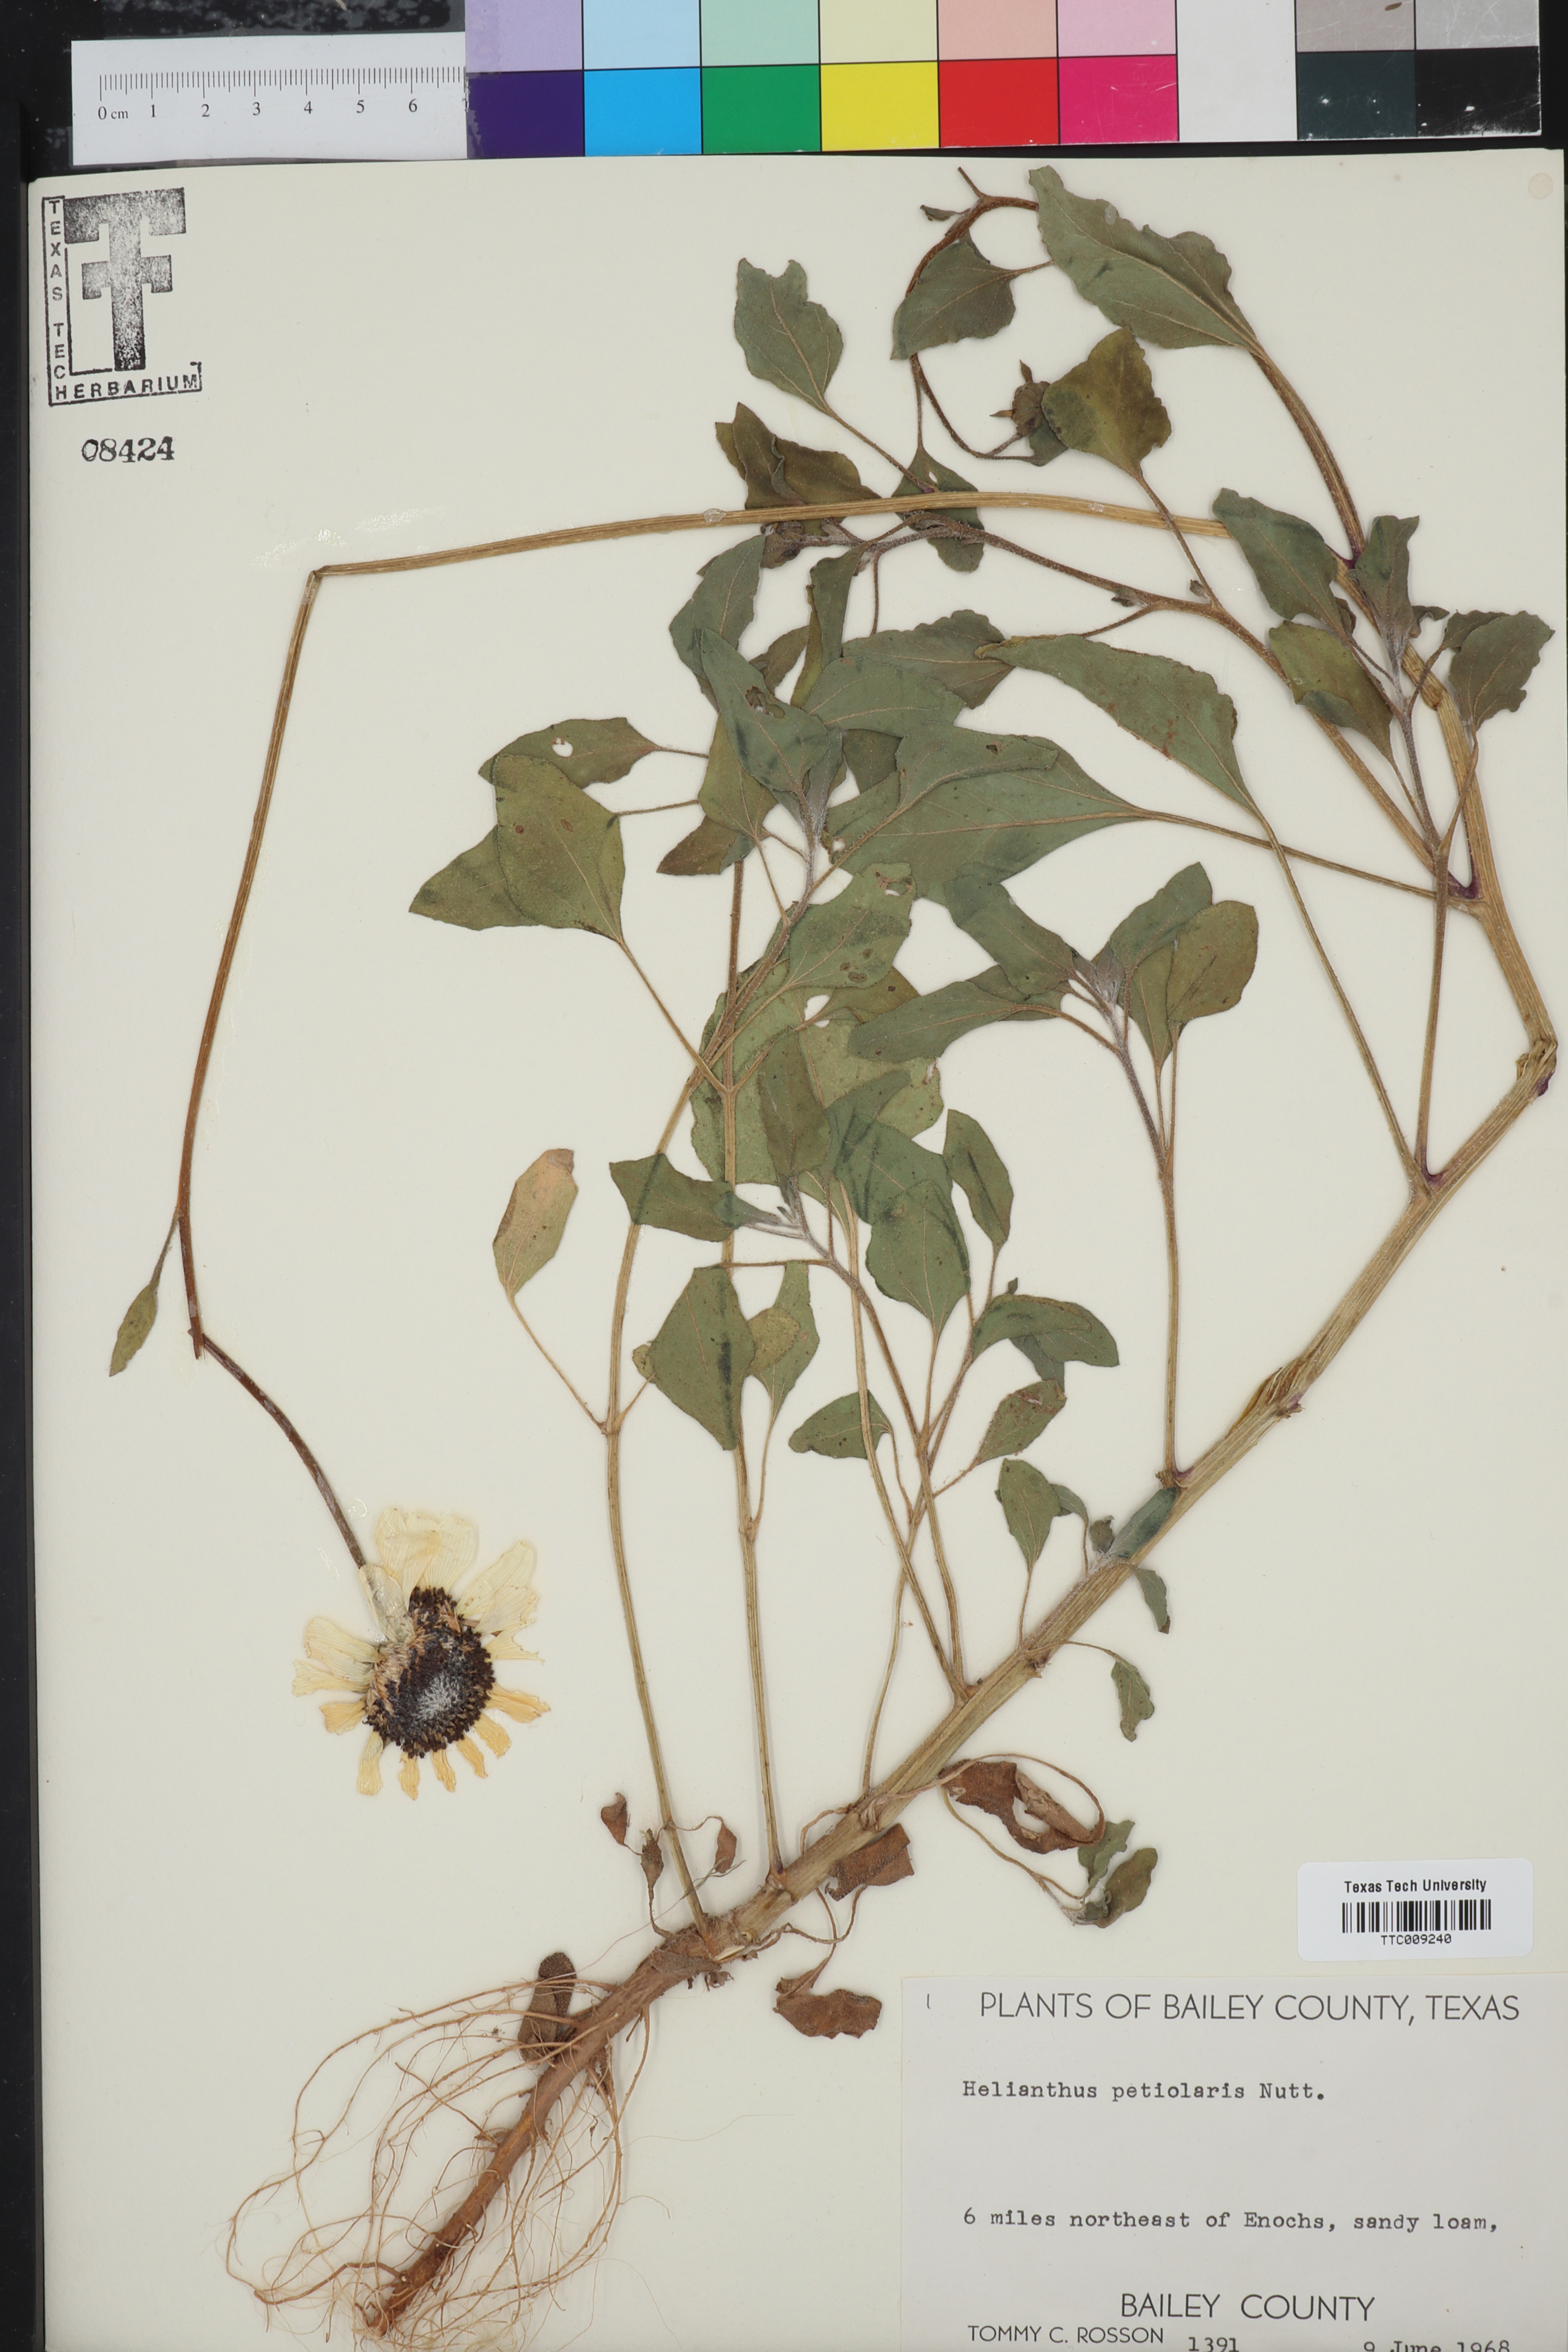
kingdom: Plantae
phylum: Tracheophyta
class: Magnoliopsida
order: Asterales
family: Asteraceae
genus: Helianthus
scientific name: Helianthus petiolaris
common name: Lesser sunflower
